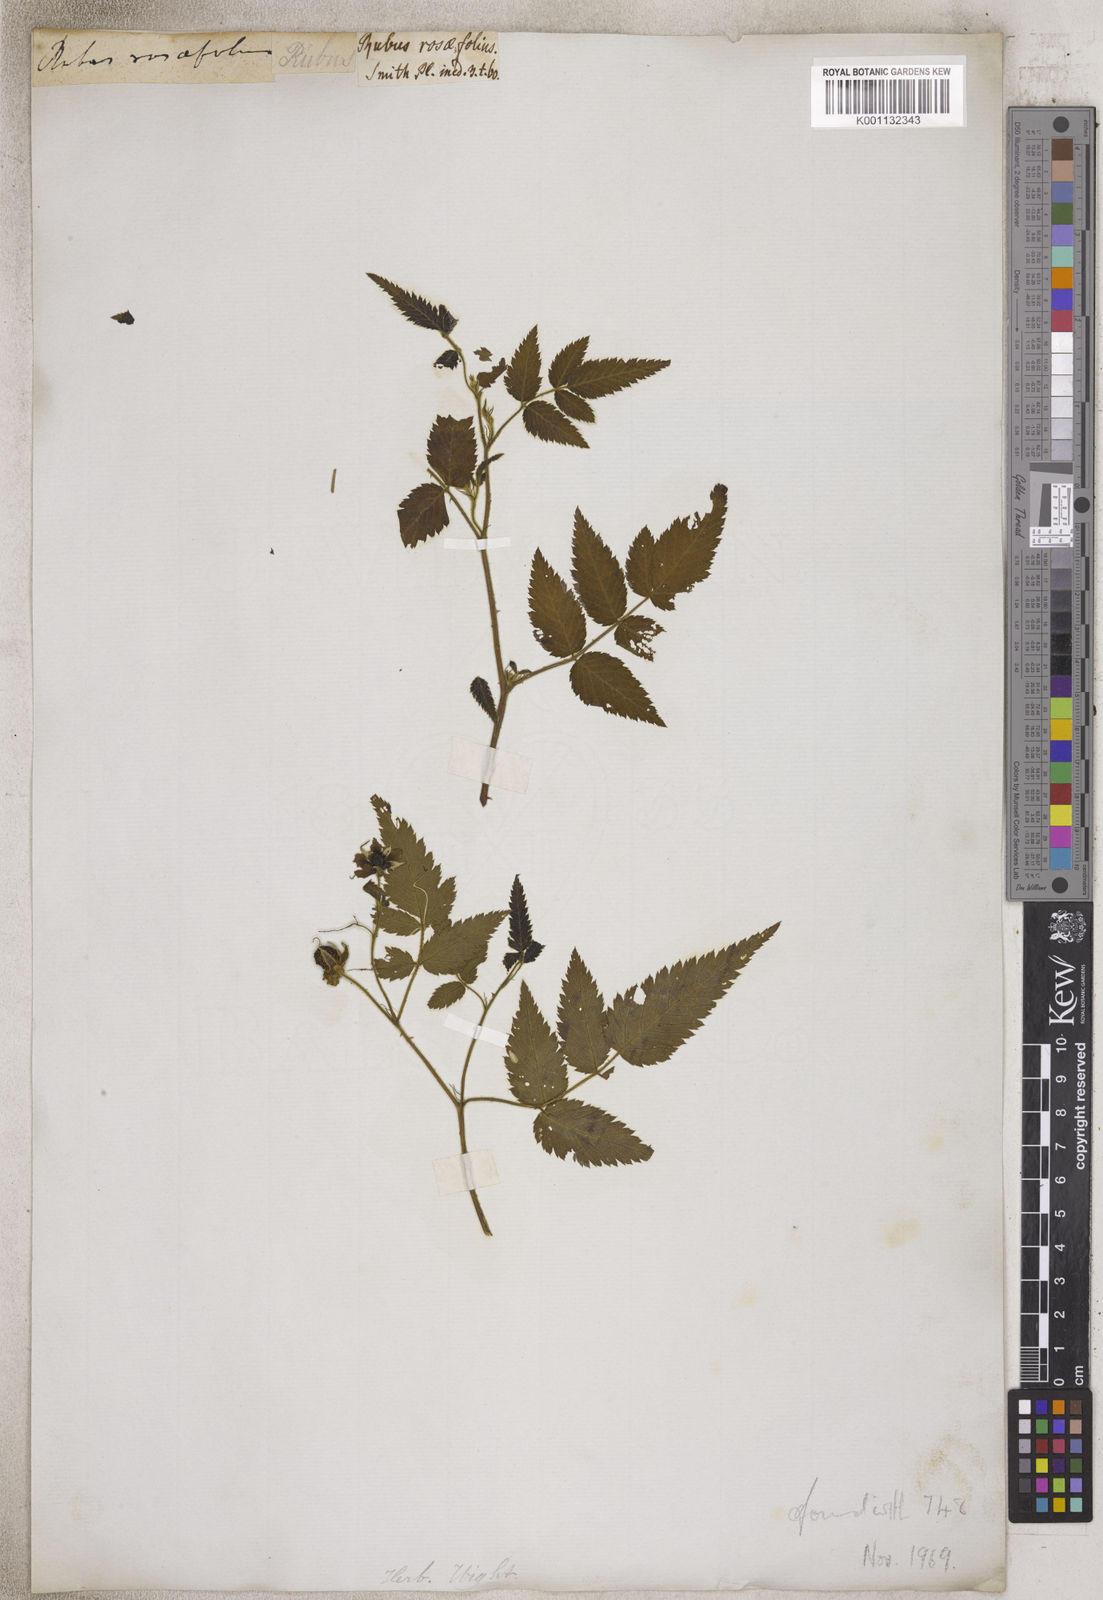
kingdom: Plantae
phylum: Tracheophyta
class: Magnoliopsida
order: Rosales
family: Rosaceae
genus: Rubus
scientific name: Rubus
